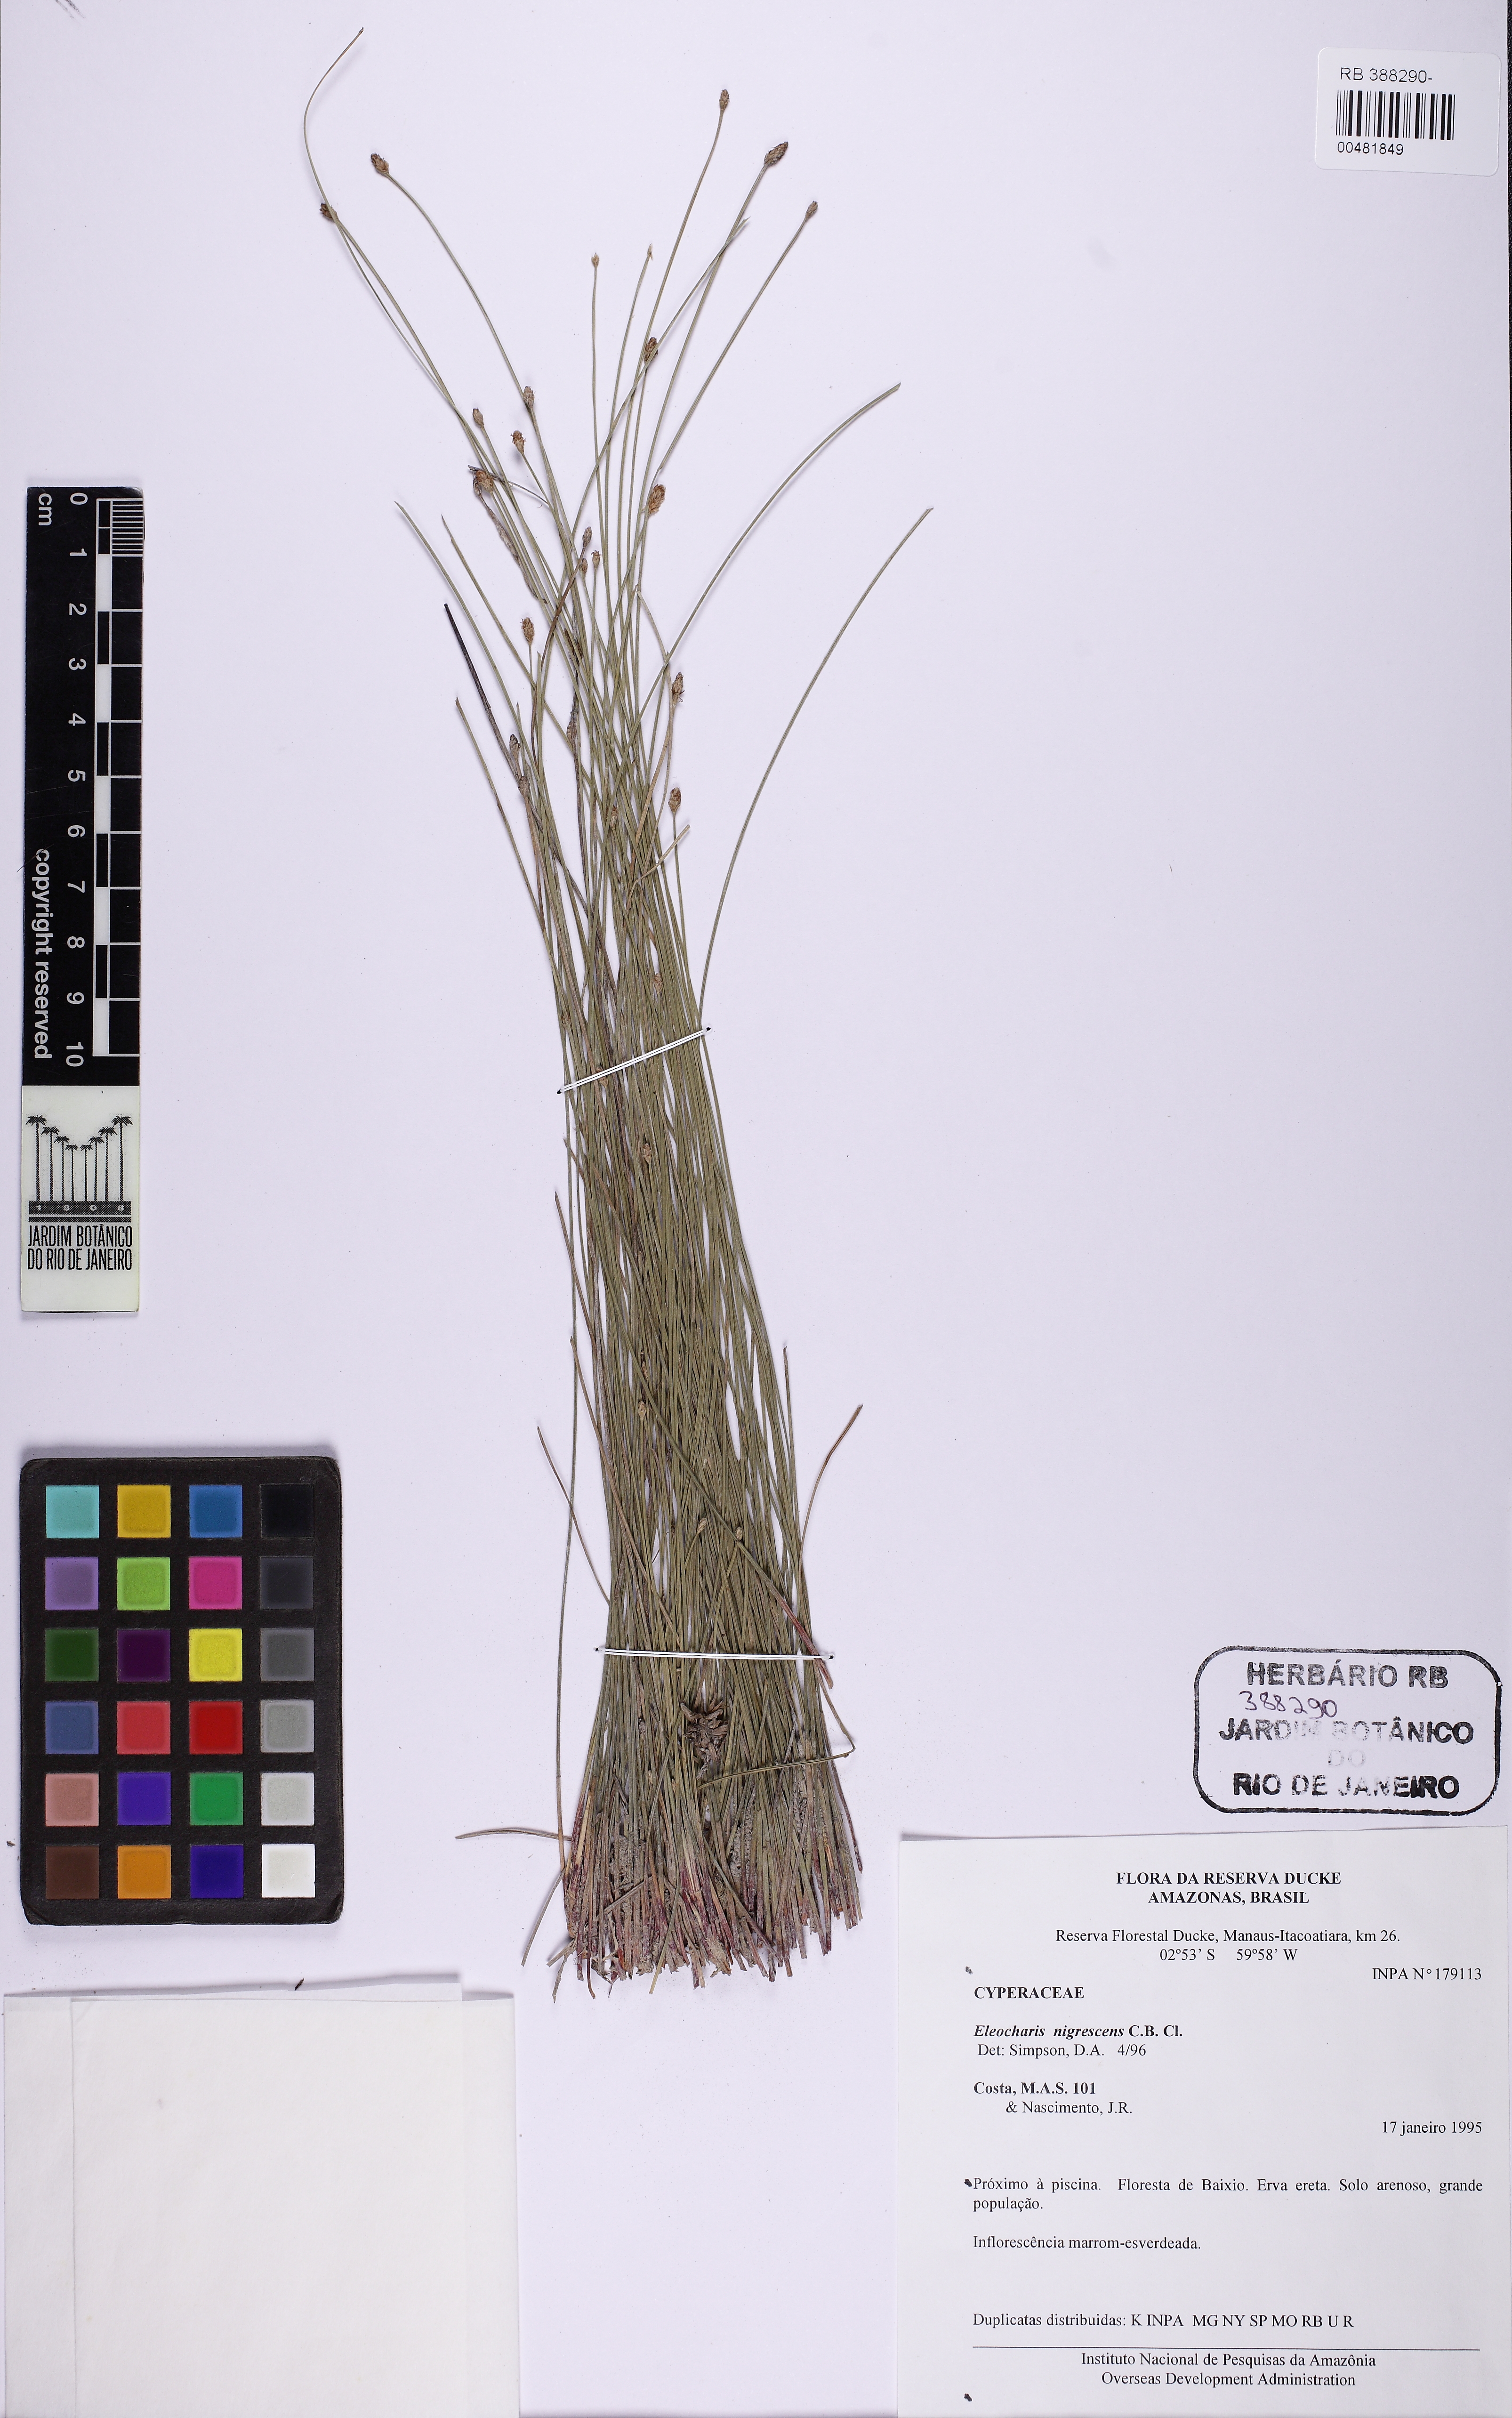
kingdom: Plantae
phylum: Tracheophyta
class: Liliopsida
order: Poales
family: Cyperaceae
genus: Eleocharis
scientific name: Eleocharis filiculmis
